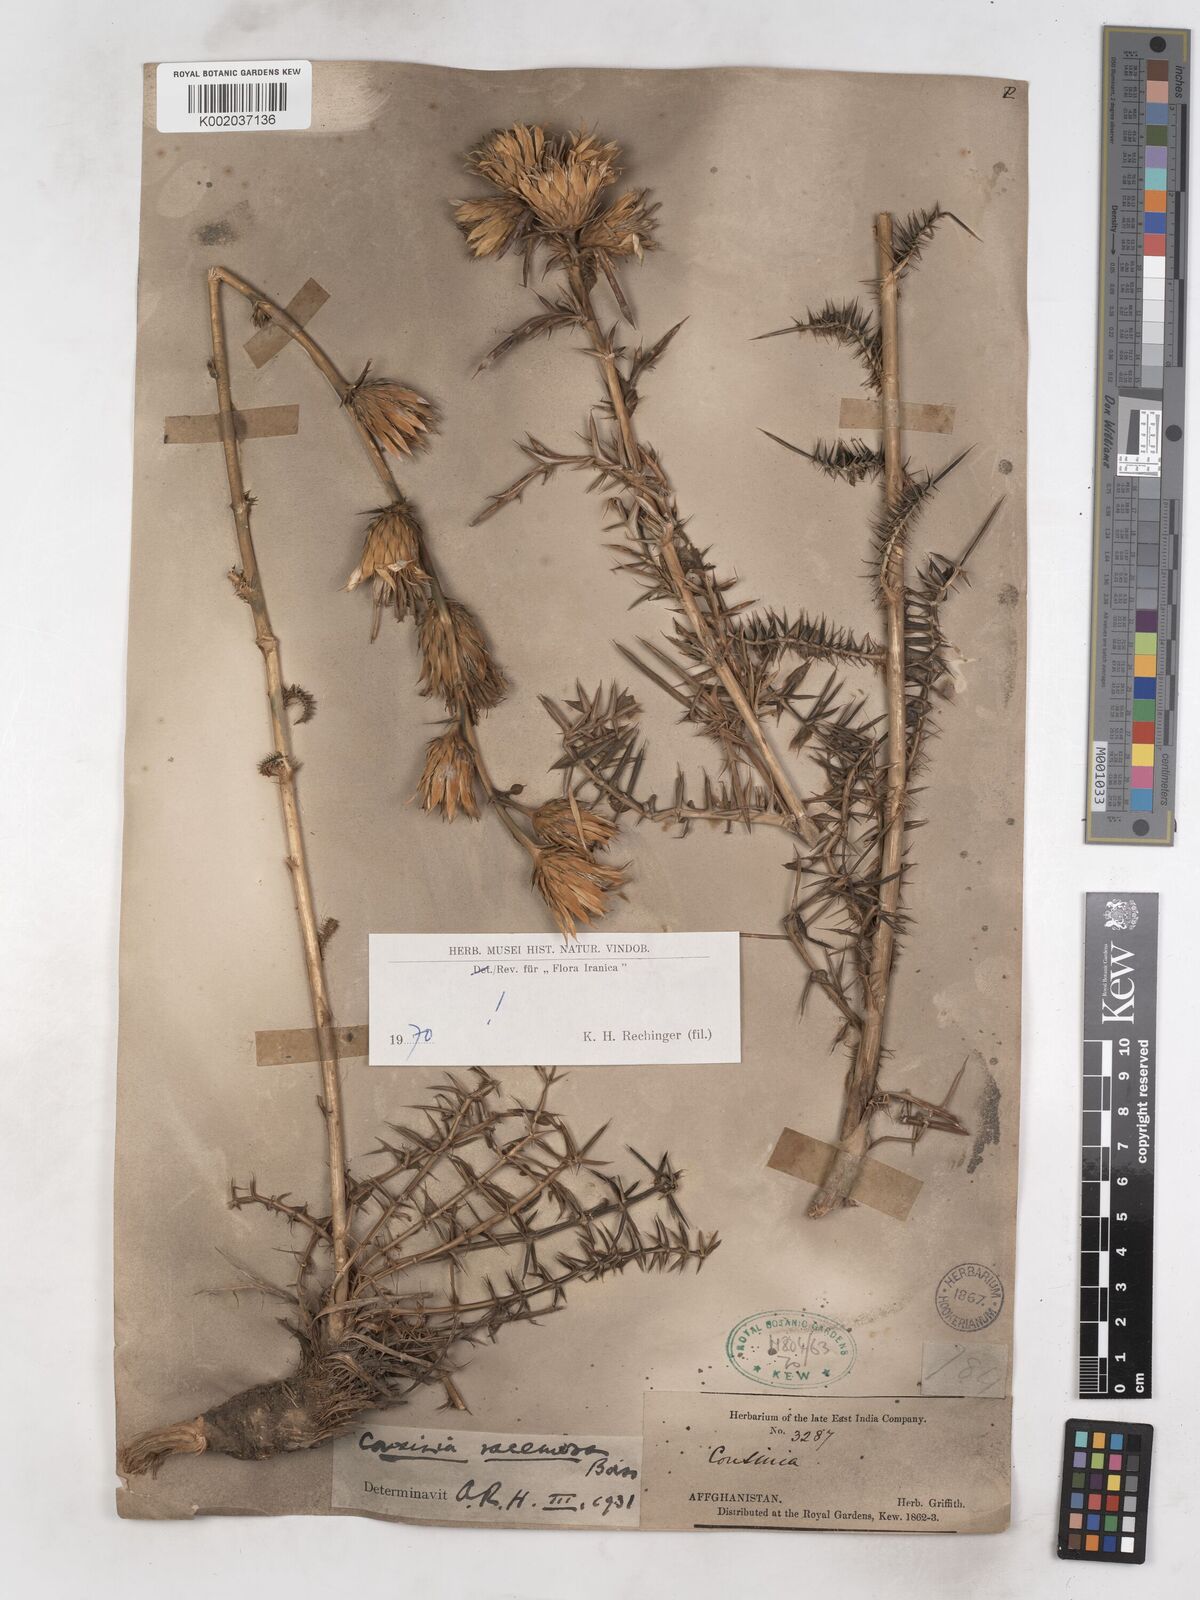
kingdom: Plantae
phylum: Tracheophyta
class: Magnoliopsida
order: Asterales
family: Asteraceae
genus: Cousinia
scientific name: Cousinia racemosa
